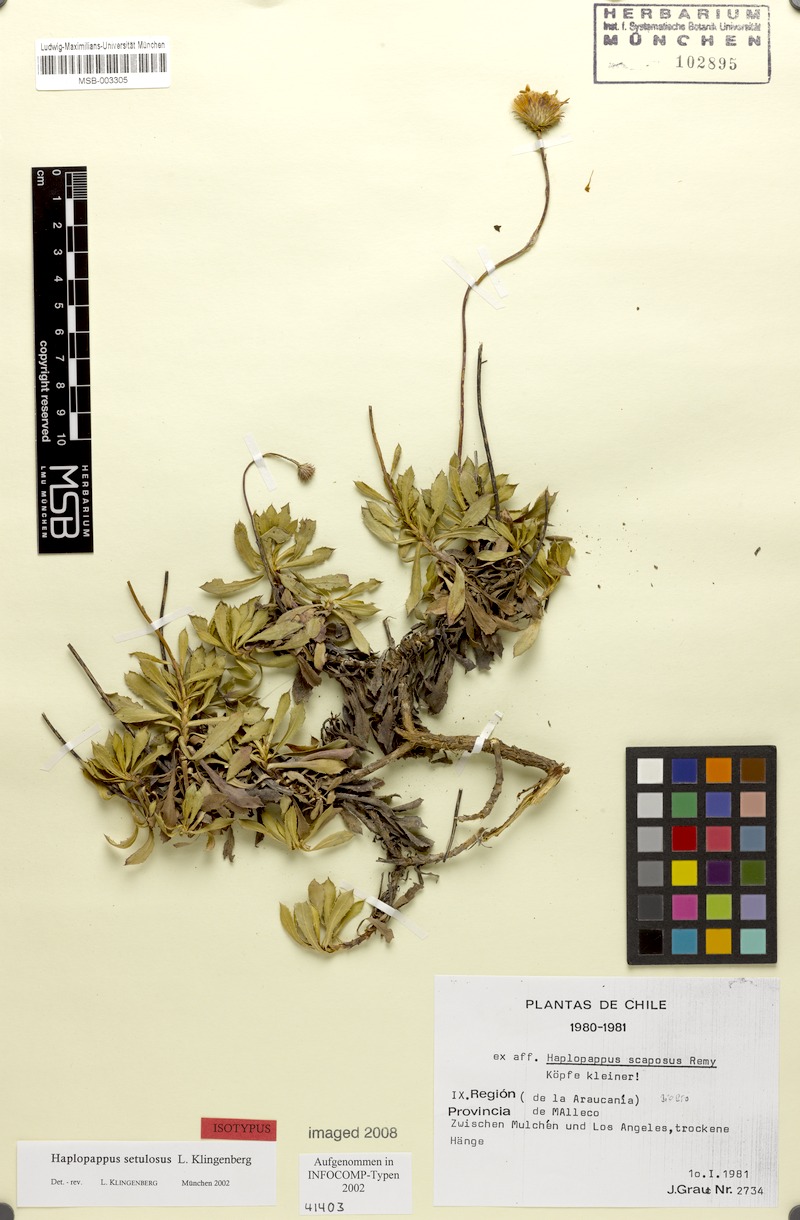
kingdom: Plantae
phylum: Tracheophyta
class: Magnoliopsida
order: Asterales
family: Asteraceae
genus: Haplopappus
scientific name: Haplopappus setulosus
